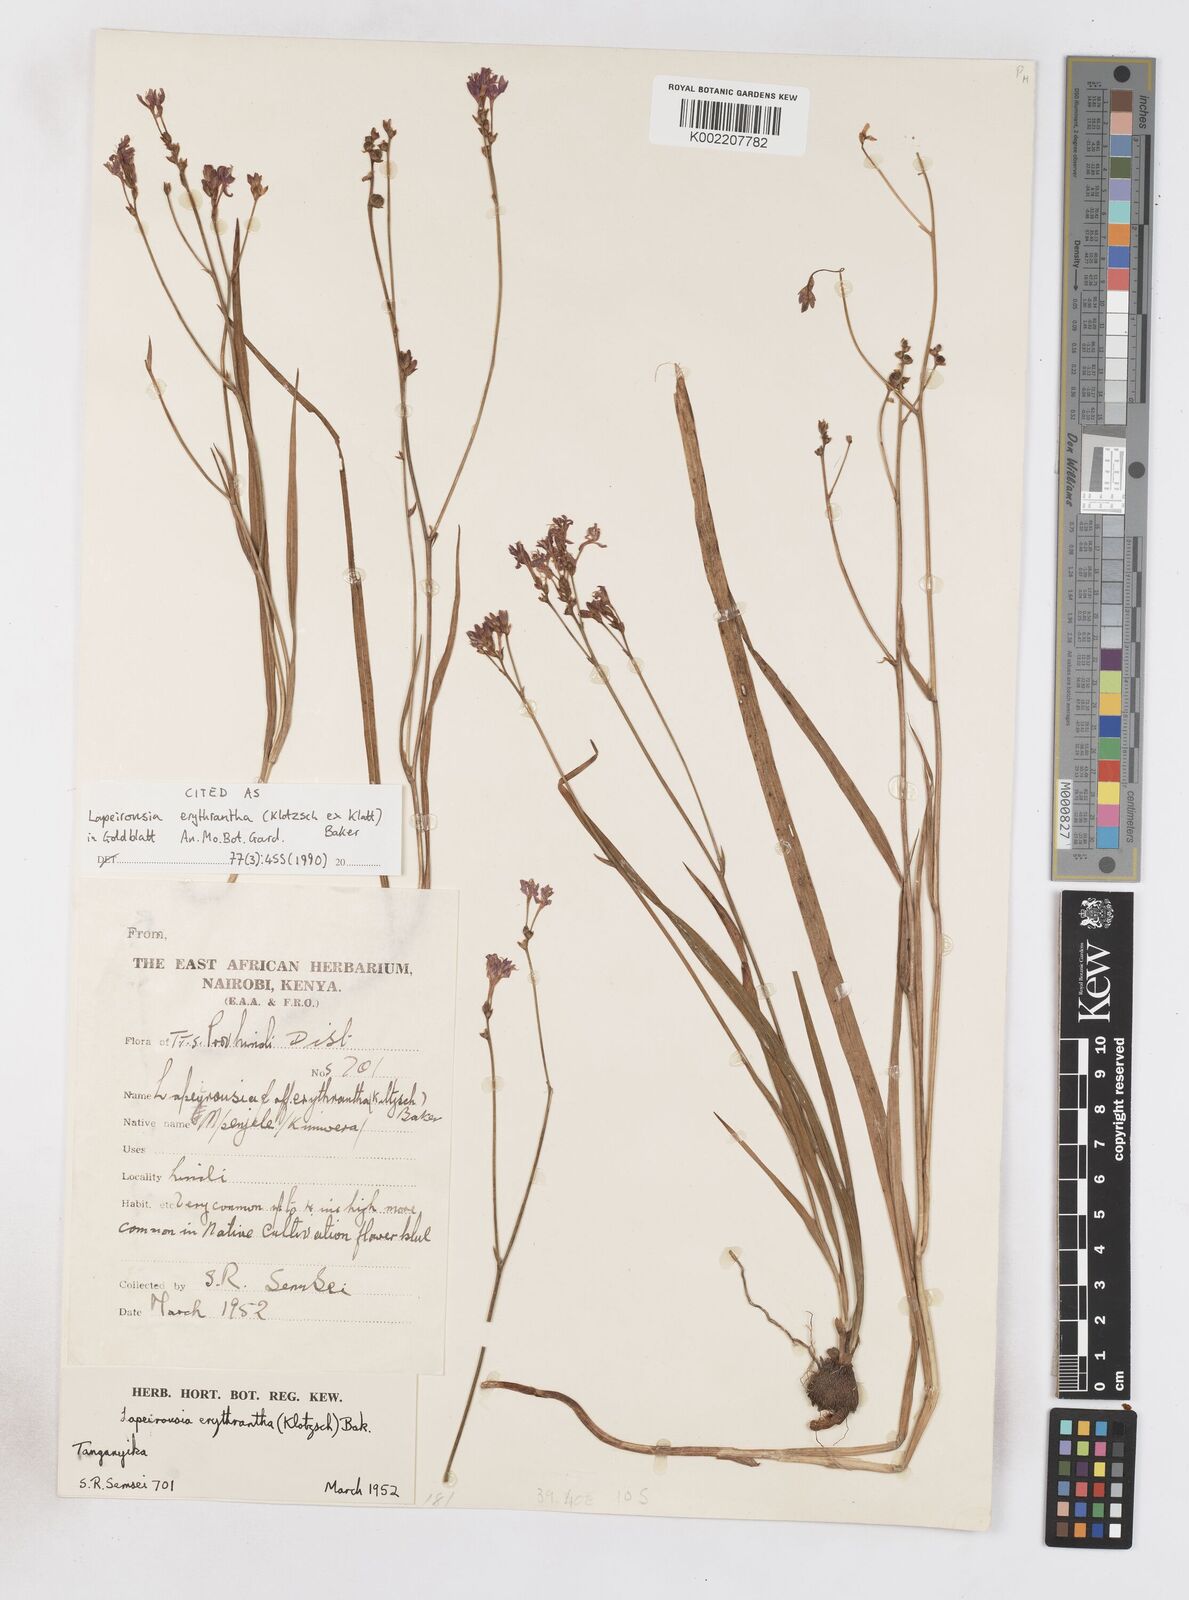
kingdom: Plantae
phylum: Tracheophyta
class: Liliopsida
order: Asparagales
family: Iridaceae
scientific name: Iridaceae
